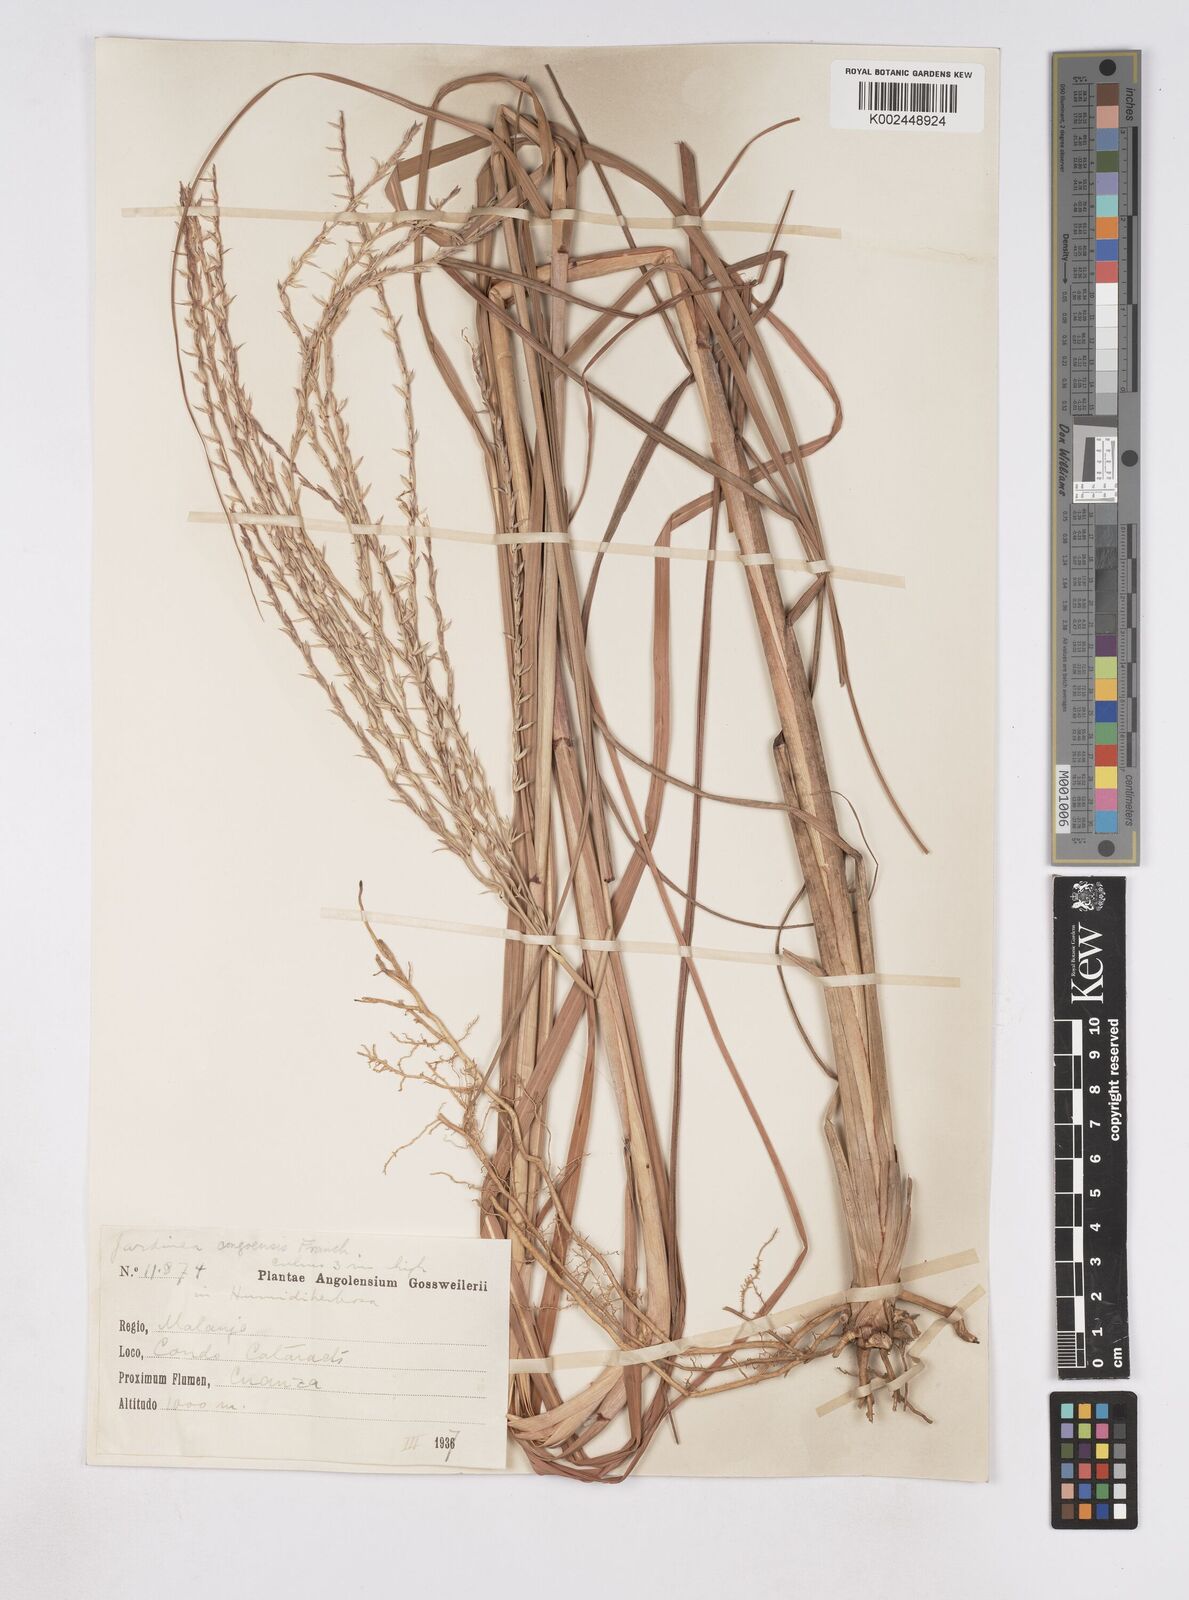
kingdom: Plantae
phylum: Tracheophyta
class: Liliopsida
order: Poales
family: Poaceae
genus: Phacelurus
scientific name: Phacelurus gabonensis
